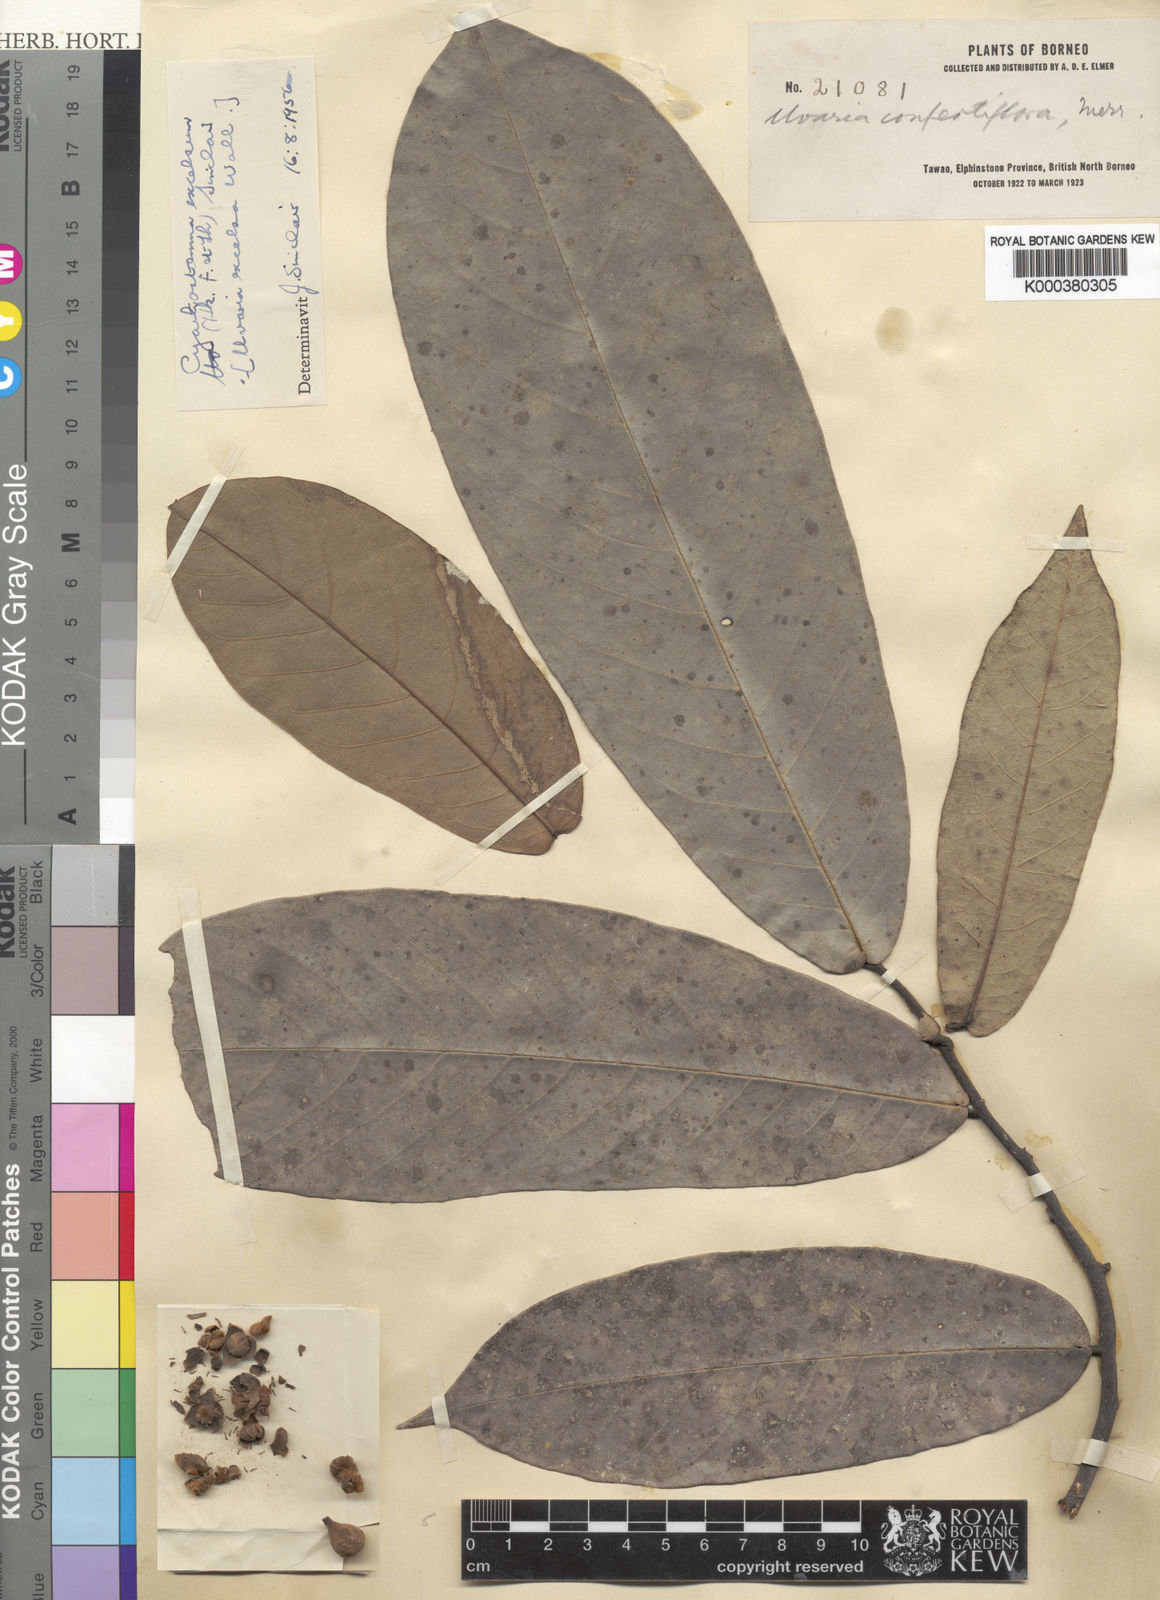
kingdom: Plantae
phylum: Tracheophyta
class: Magnoliopsida
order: Magnoliales
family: Annonaceae
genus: Uvaria
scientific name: Uvaria excelsa
